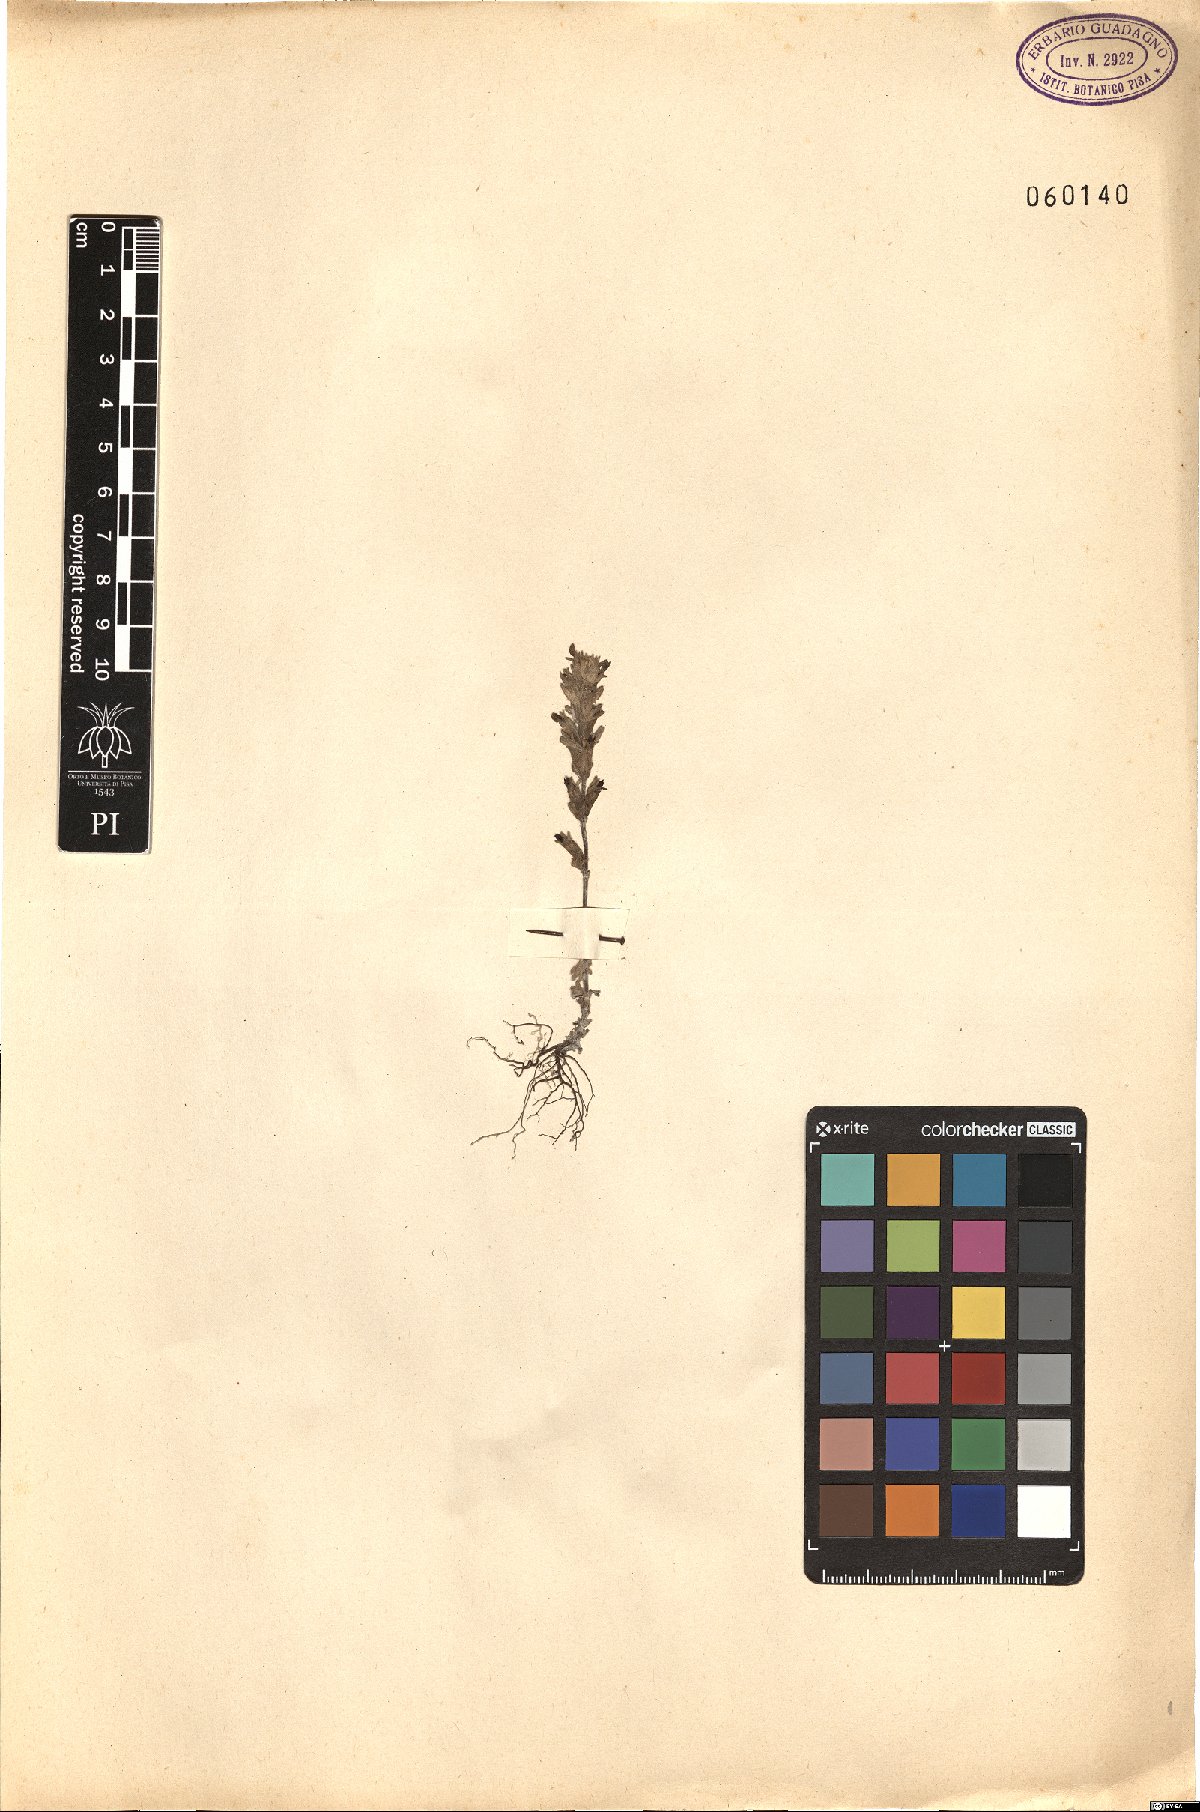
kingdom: Plantae
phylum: Tracheophyta
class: Magnoliopsida
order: Lamiales
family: Orobanchaceae
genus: Parentucellia
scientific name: Parentucellia latifolia
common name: Broadleaf glandweed
